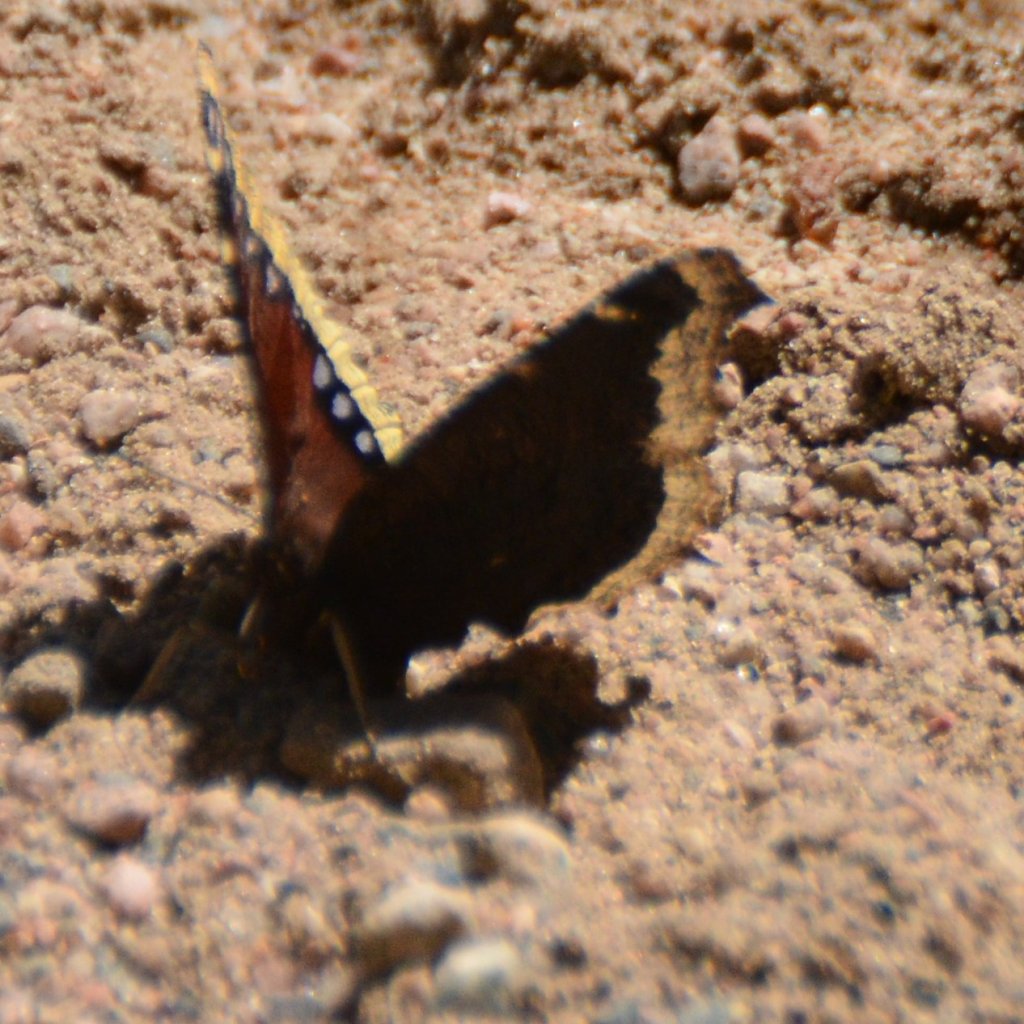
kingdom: Animalia
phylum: Arthropoda
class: Insecta
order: Lepidoptera
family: Nymphalidae
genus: Nymphalis
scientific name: Nymphalis antiopa
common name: Mourning Cloak
